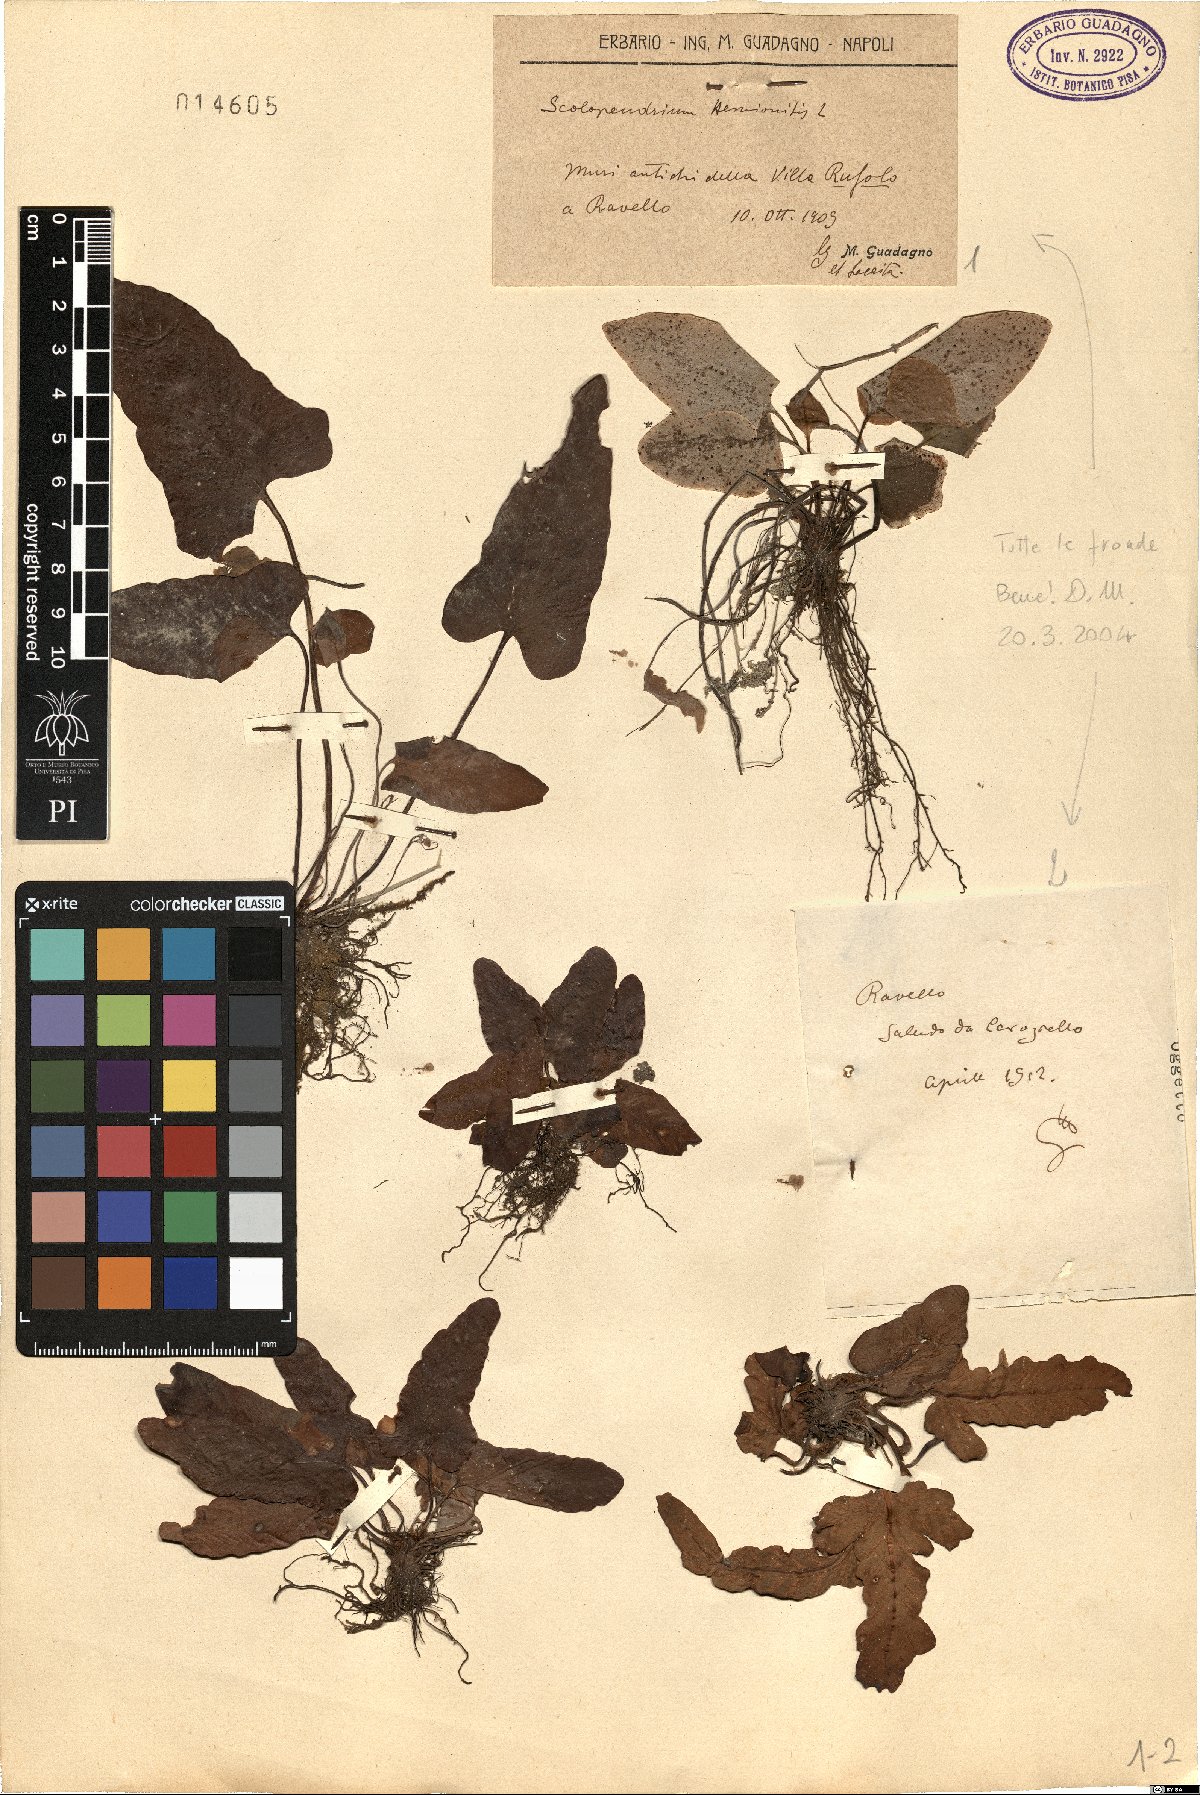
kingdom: Plantae
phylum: Tracheophyta
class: Polypodiopsida
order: Polypodiales
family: Aspleniaceae
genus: Asplenium
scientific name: Asplenium sagittatum
